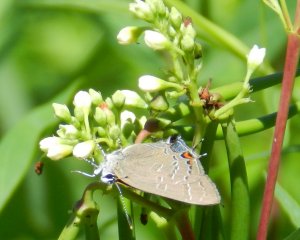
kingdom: Animalia
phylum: Arthropoda
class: Insecta
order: Lepidoptera
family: Lycaenidae
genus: Satyrium
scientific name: Satyrium calanus
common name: Banded Hairstreak
